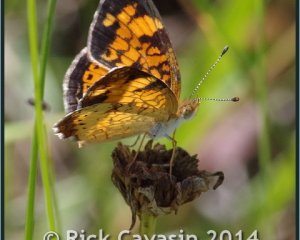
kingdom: Animalia
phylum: Arthropoda
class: Insecta
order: Lepidoptera
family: Nymphalidae
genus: Phyciodes
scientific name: Phyciodes tharos
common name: Pearl Crescent
